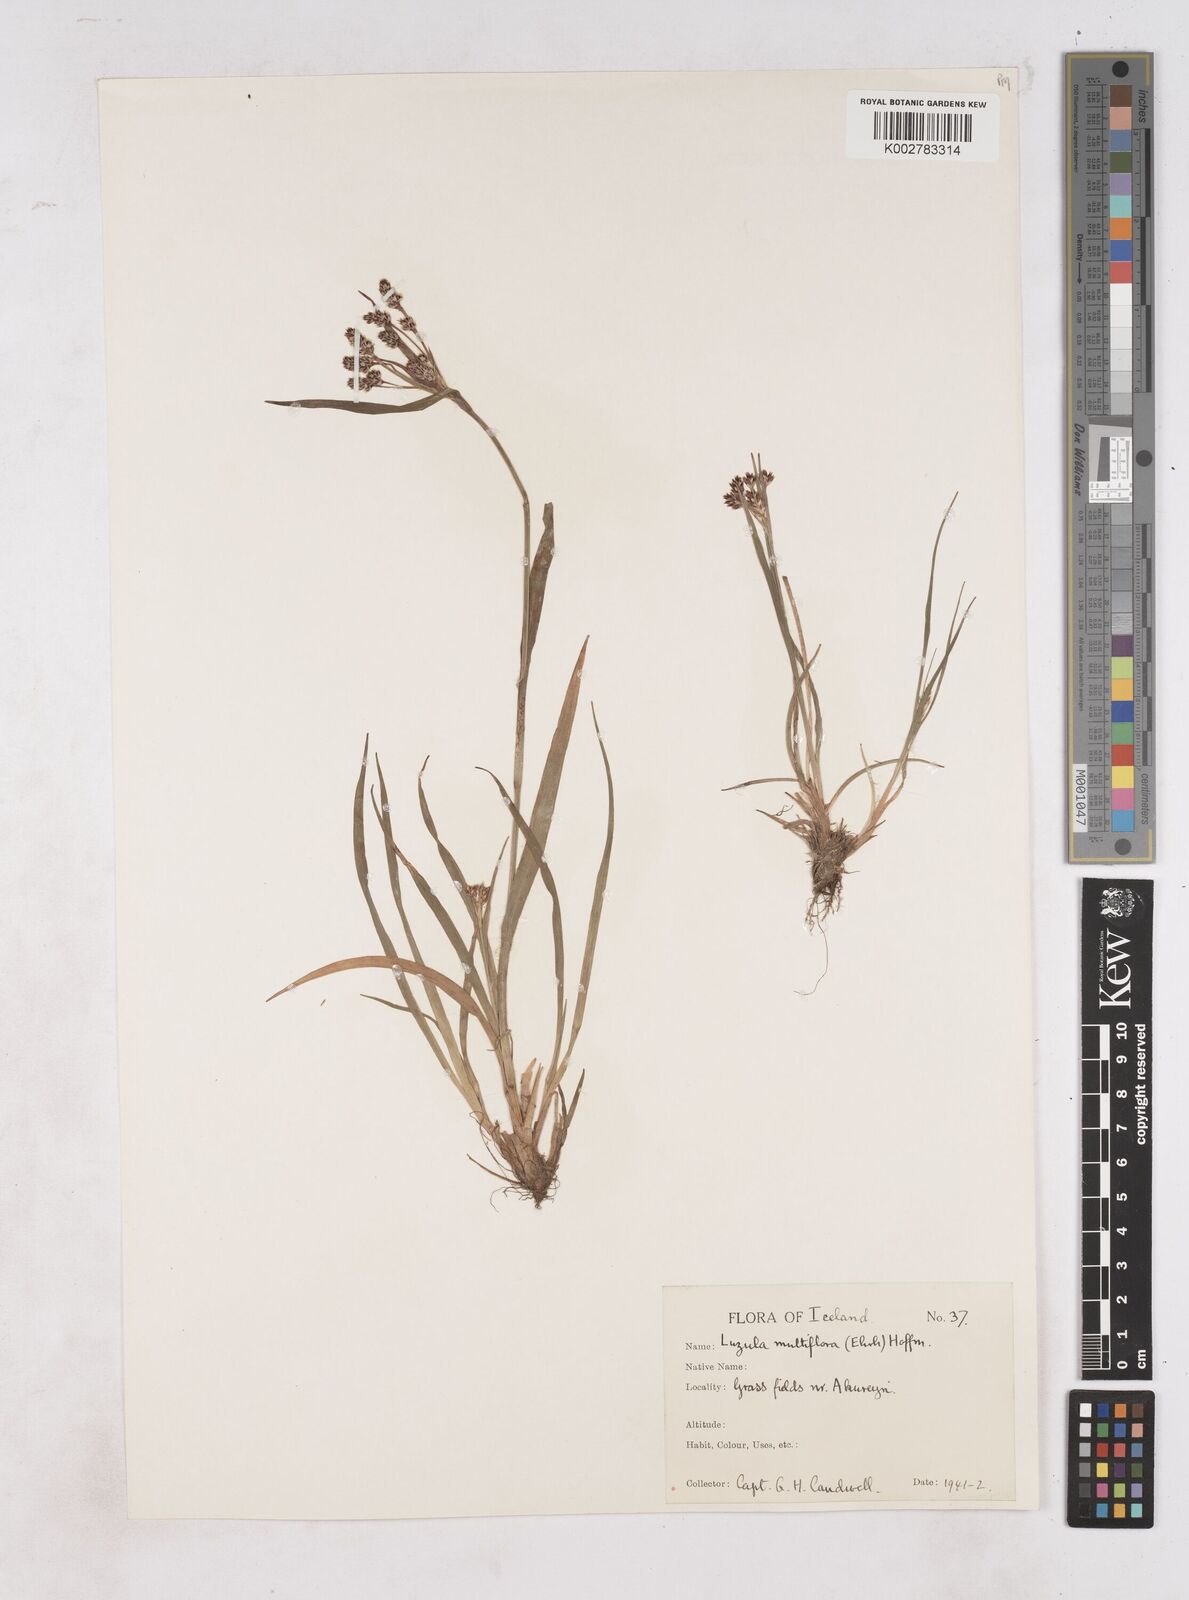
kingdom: Plantae
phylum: Tracheophyta
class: Liliopsida
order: Poales
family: Juncaceae
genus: Luzula
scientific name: Luzula multiflora
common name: Heath wood-rush
